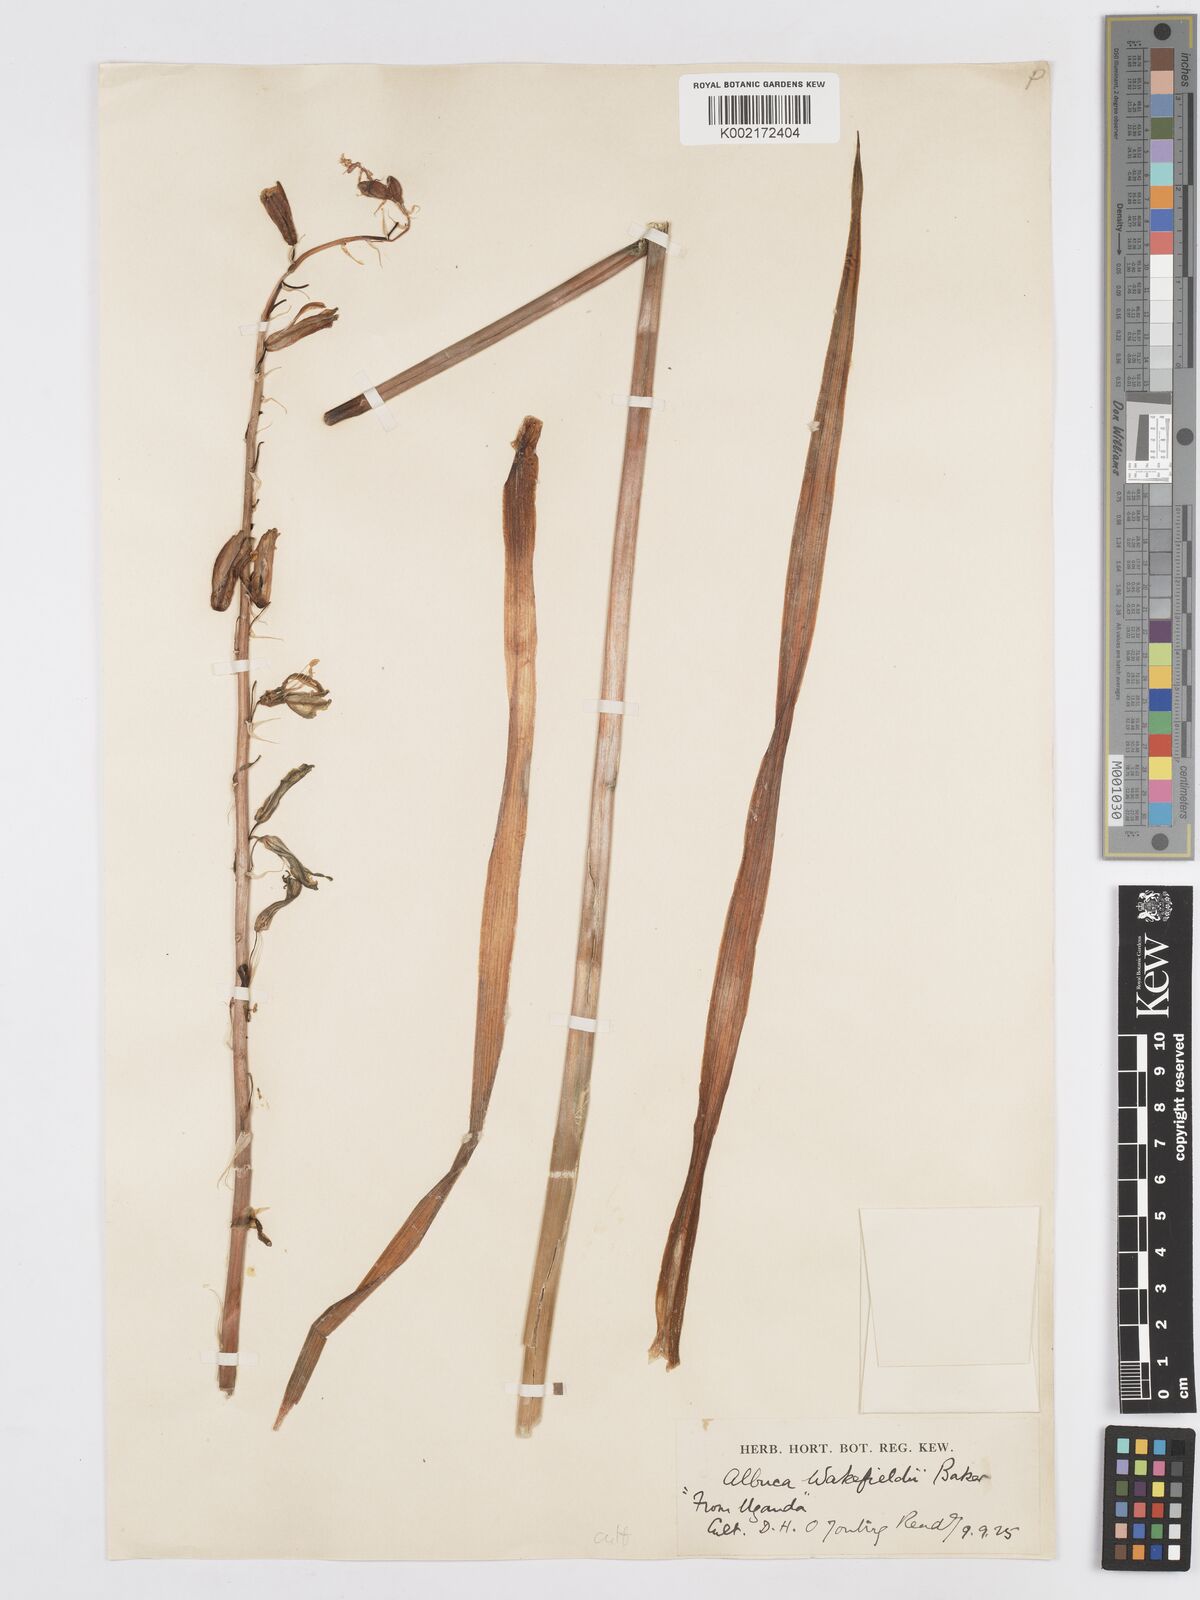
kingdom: Plantae
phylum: Tracheophyta
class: Liliopsida
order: Asparagales
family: Asparagaceae
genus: Albuca
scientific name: Albuca abyssinica
